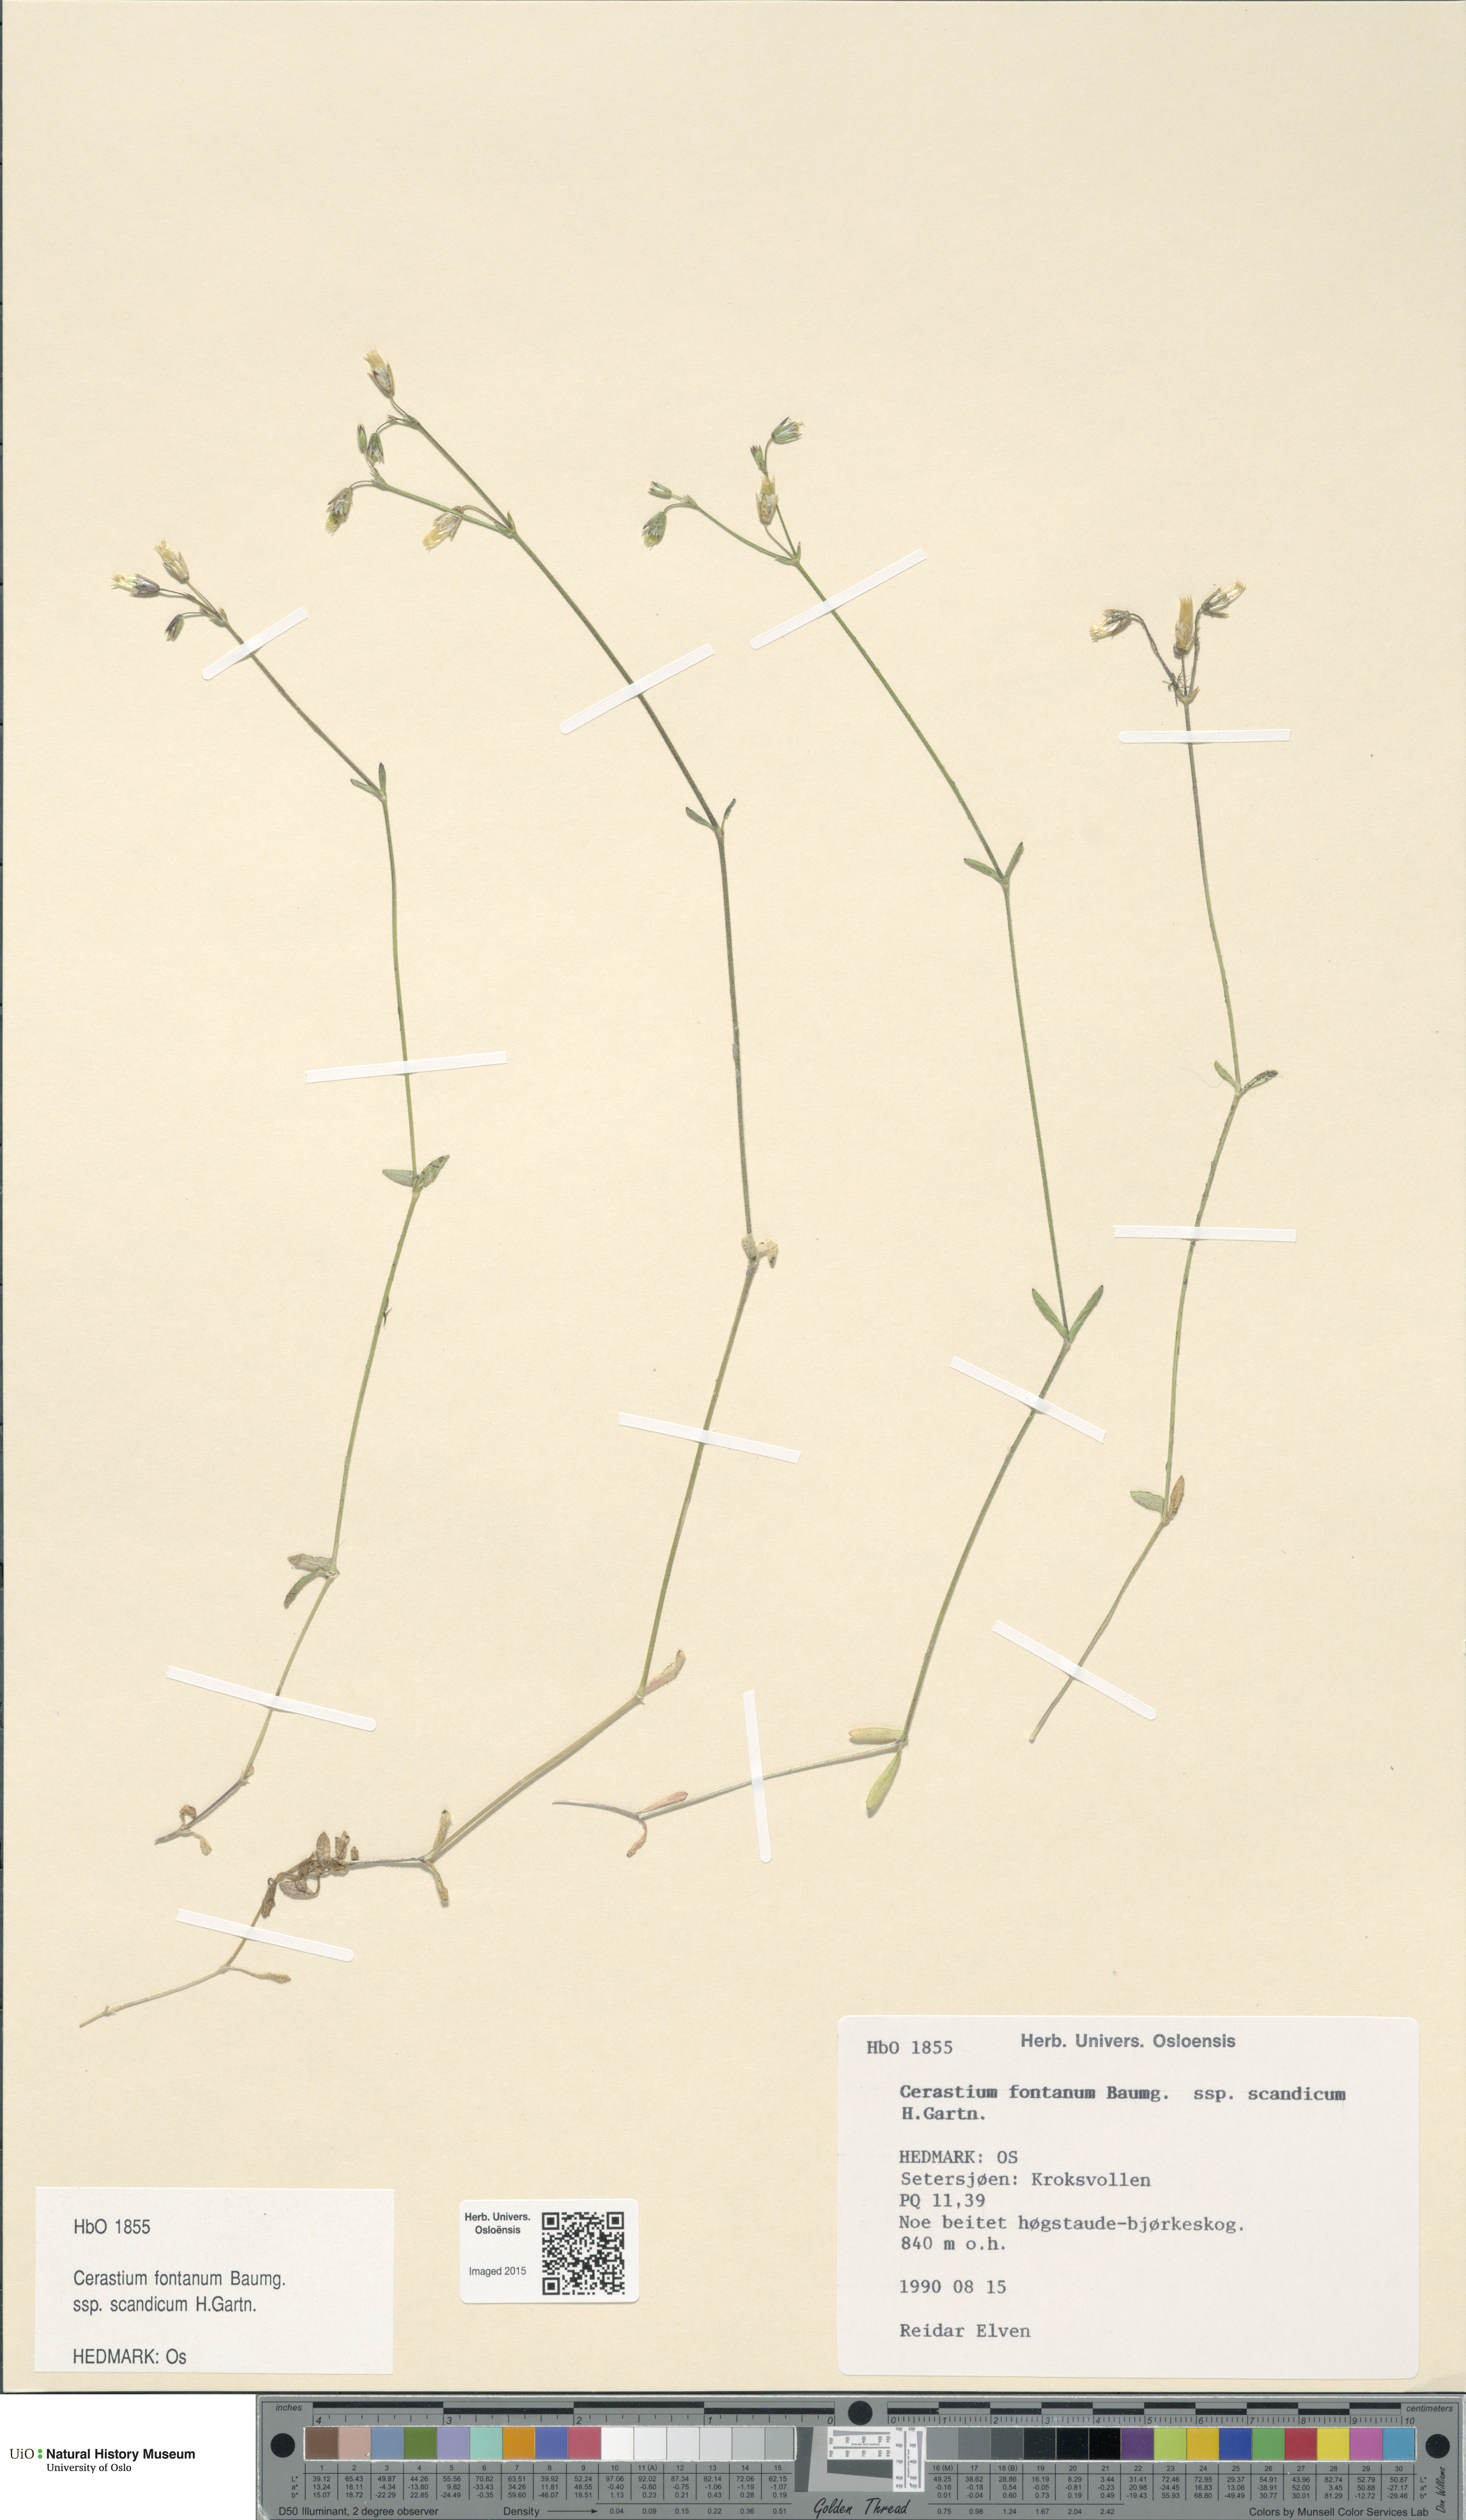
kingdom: Plantae
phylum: Tracheophyta
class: Magnoliopsida
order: Caryophyllales
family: Caryophyllaceae
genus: Cerastium
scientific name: Cerastium fontanum
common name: Common mouse-ear
